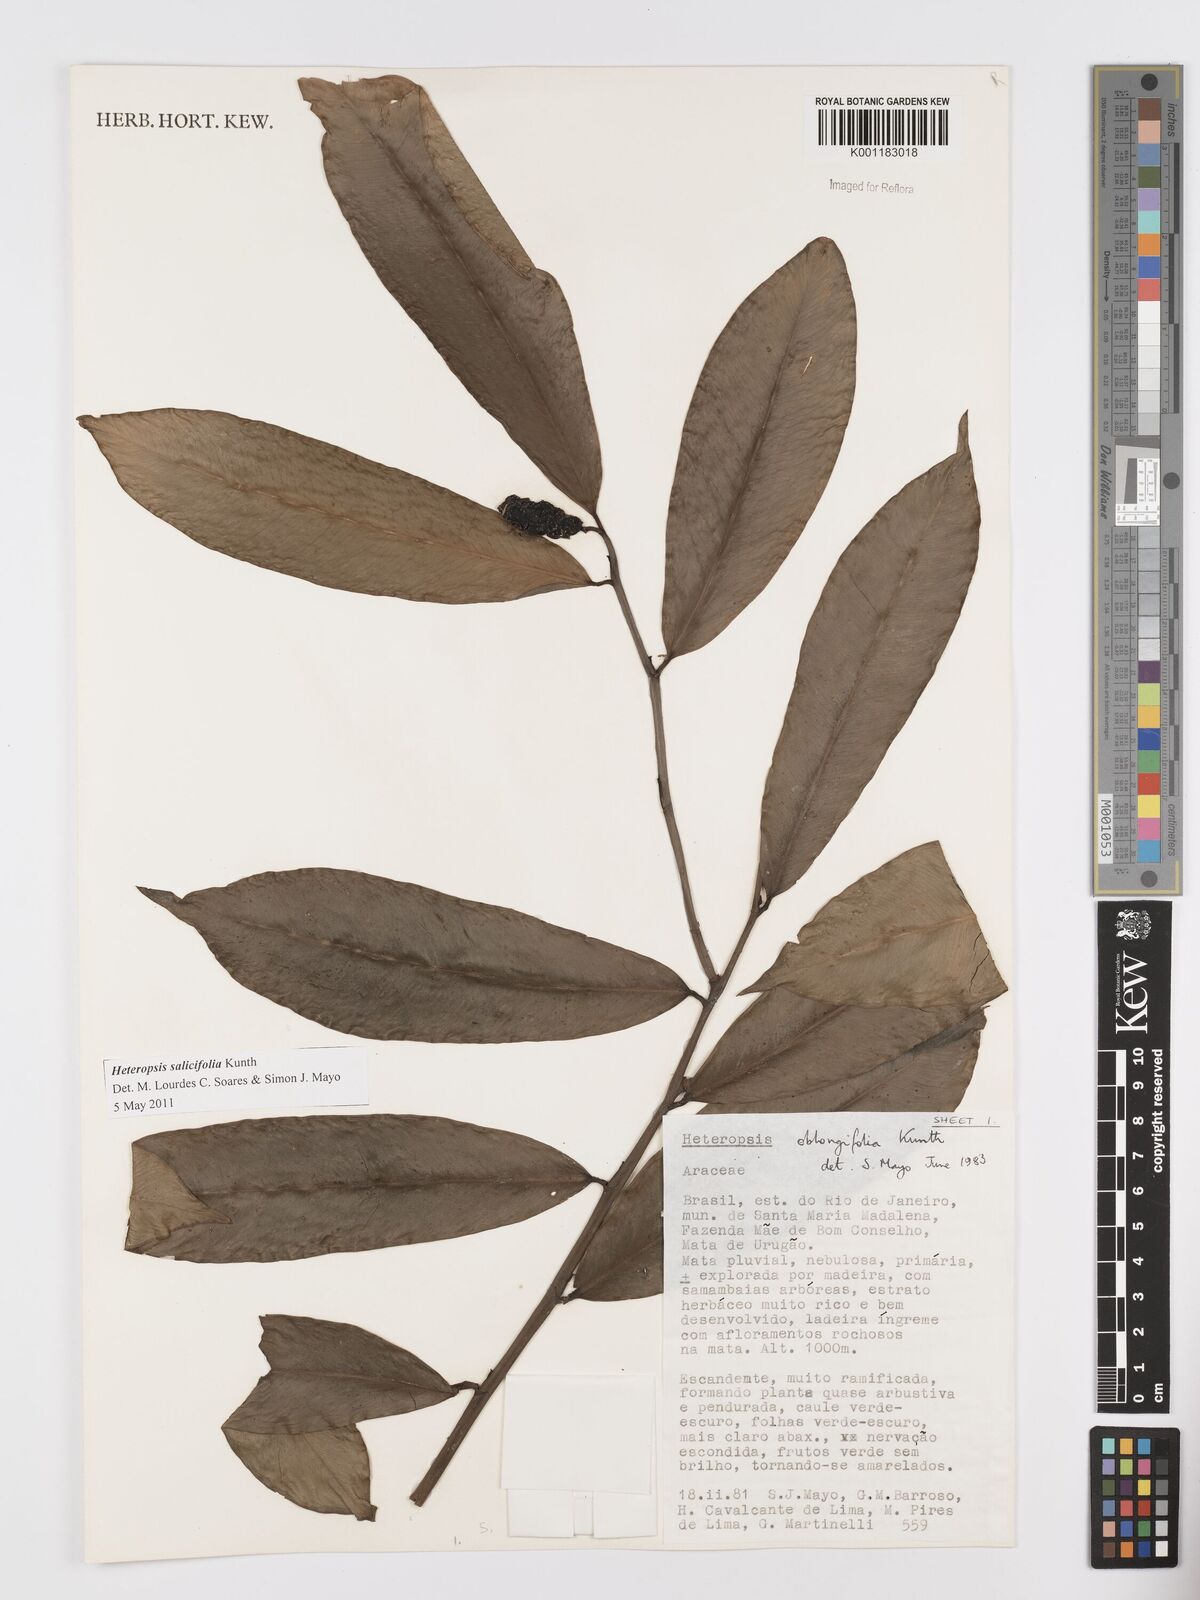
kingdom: Plantae
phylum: Tracheophyta
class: Liliopsida
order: Alismatales
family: Araceae
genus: Heteropsis
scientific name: Heteropsis salicifolia
